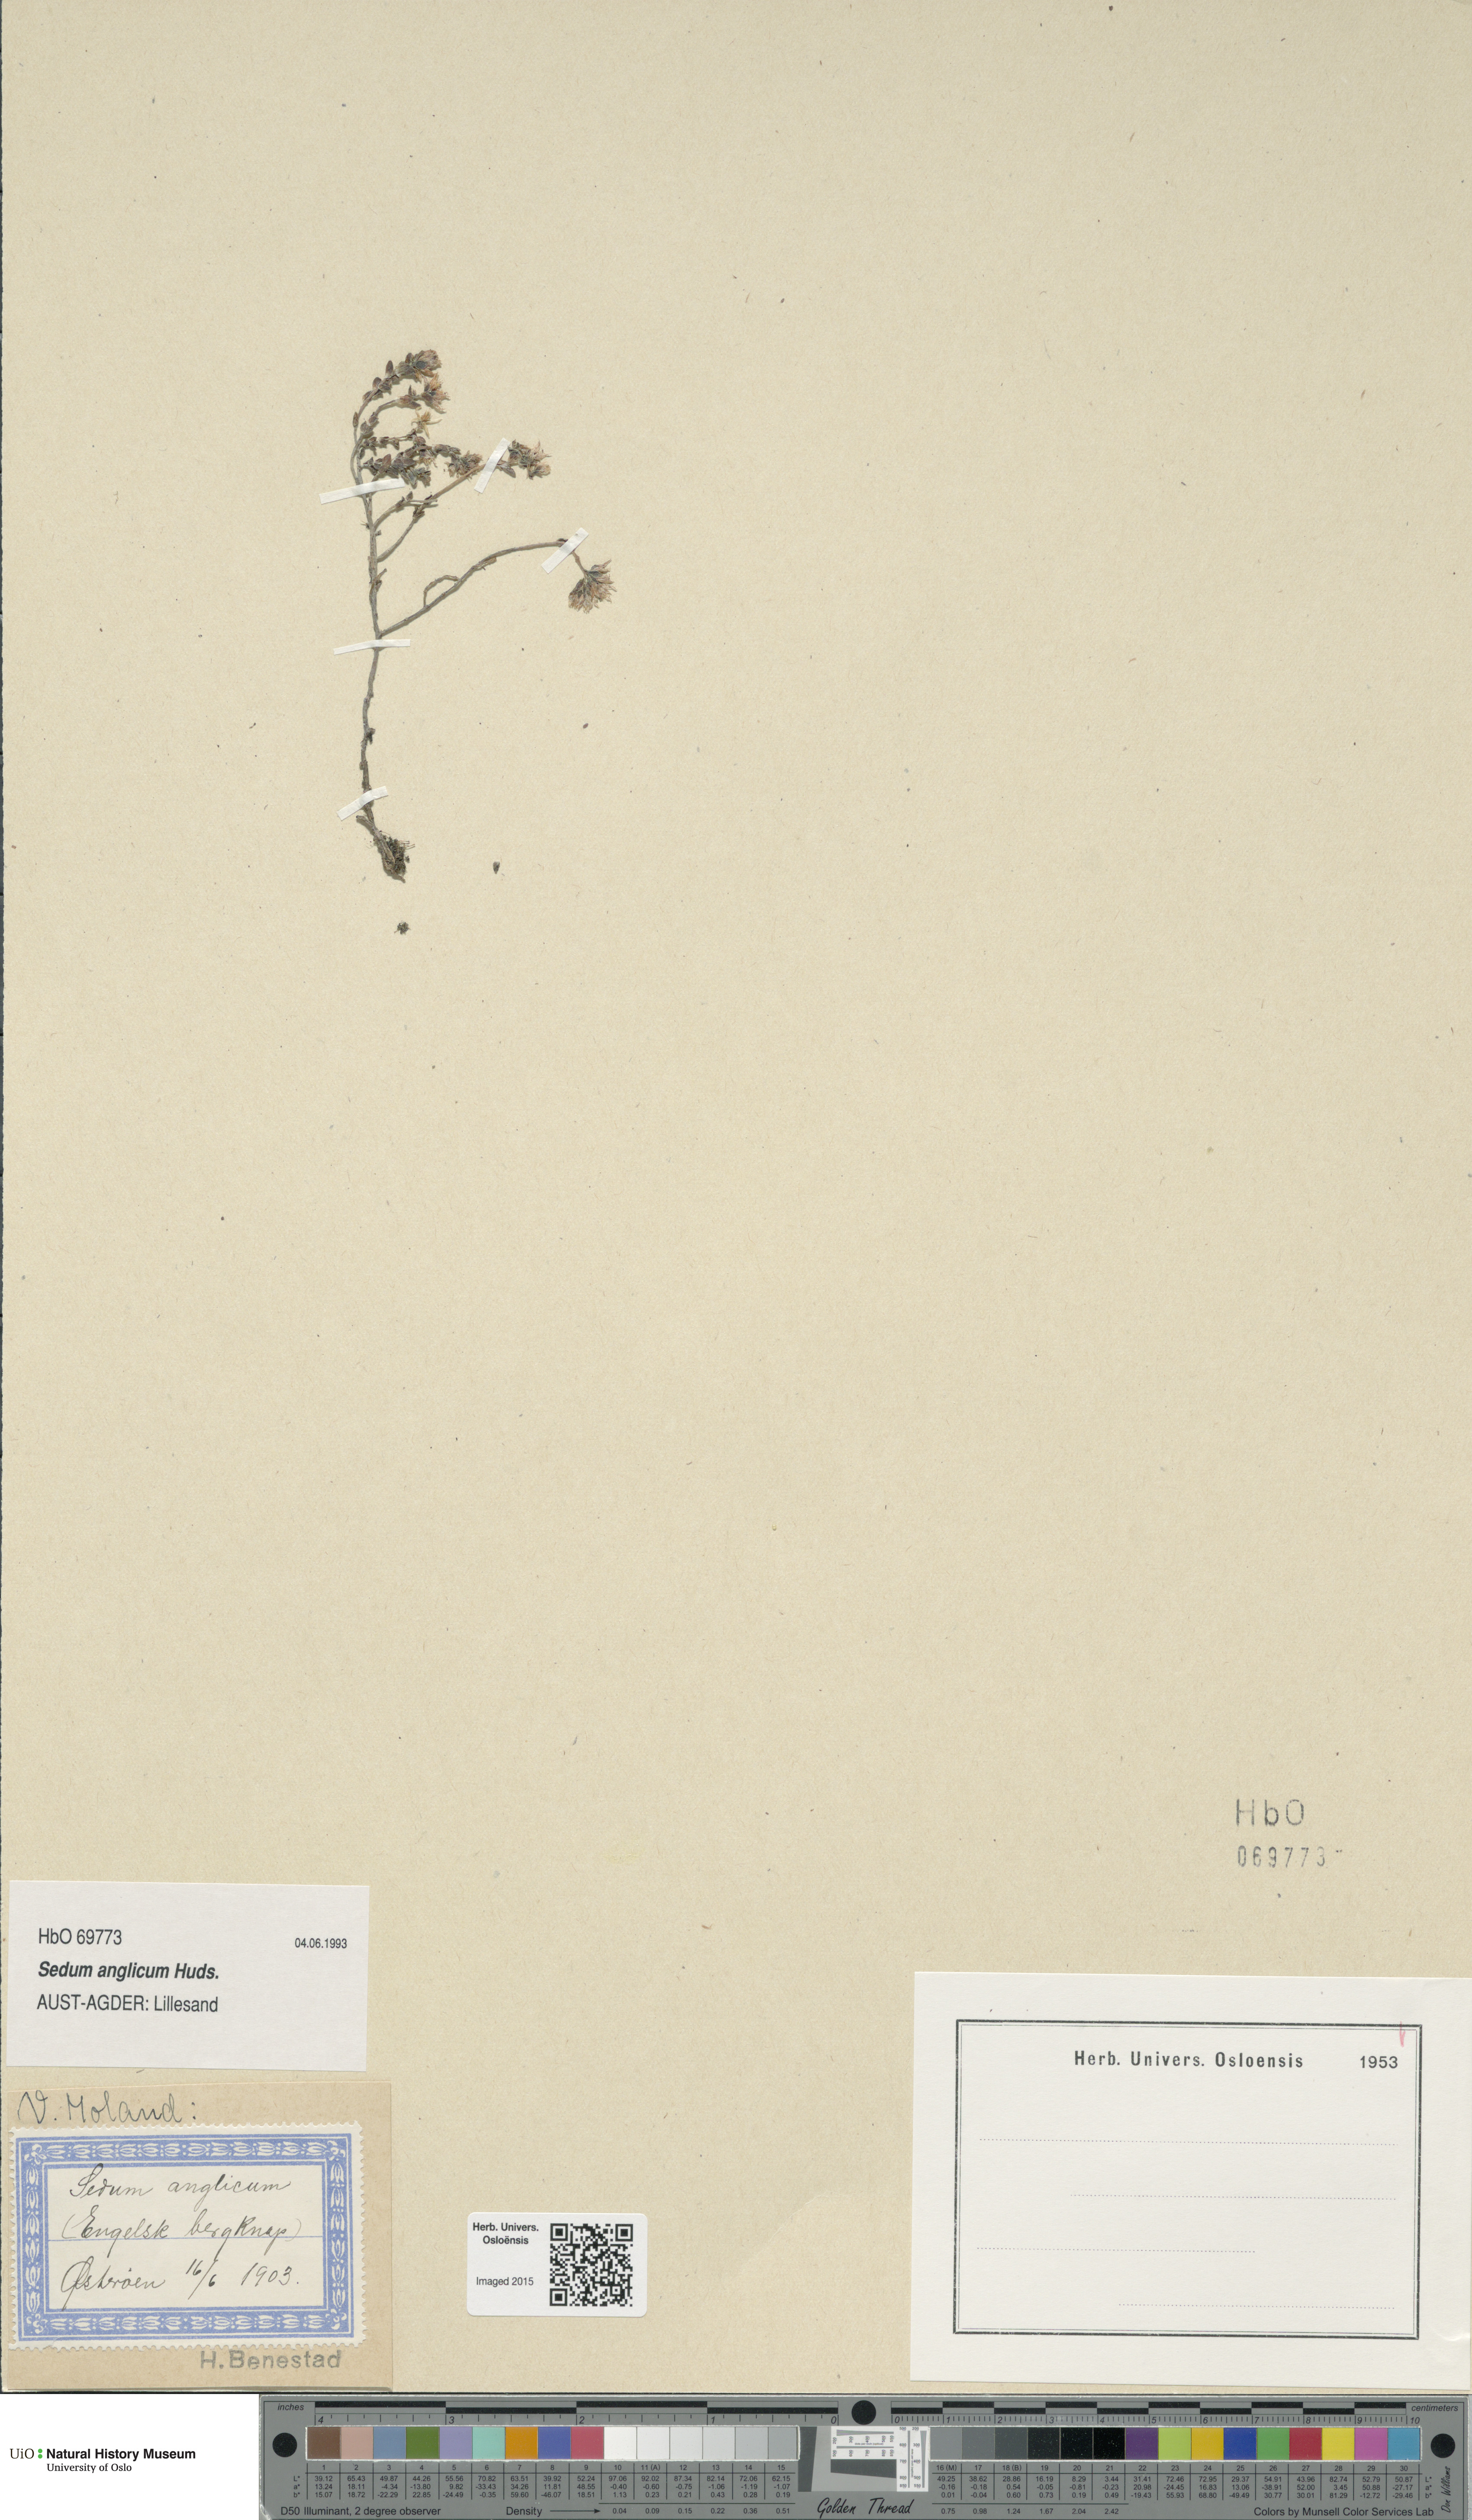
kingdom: Plantae
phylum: Tracheophyta
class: Magnoliopsida
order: Saxifragales
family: Crassulaceae
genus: Sedum
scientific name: Sedum anglicum
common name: English stonecrop
